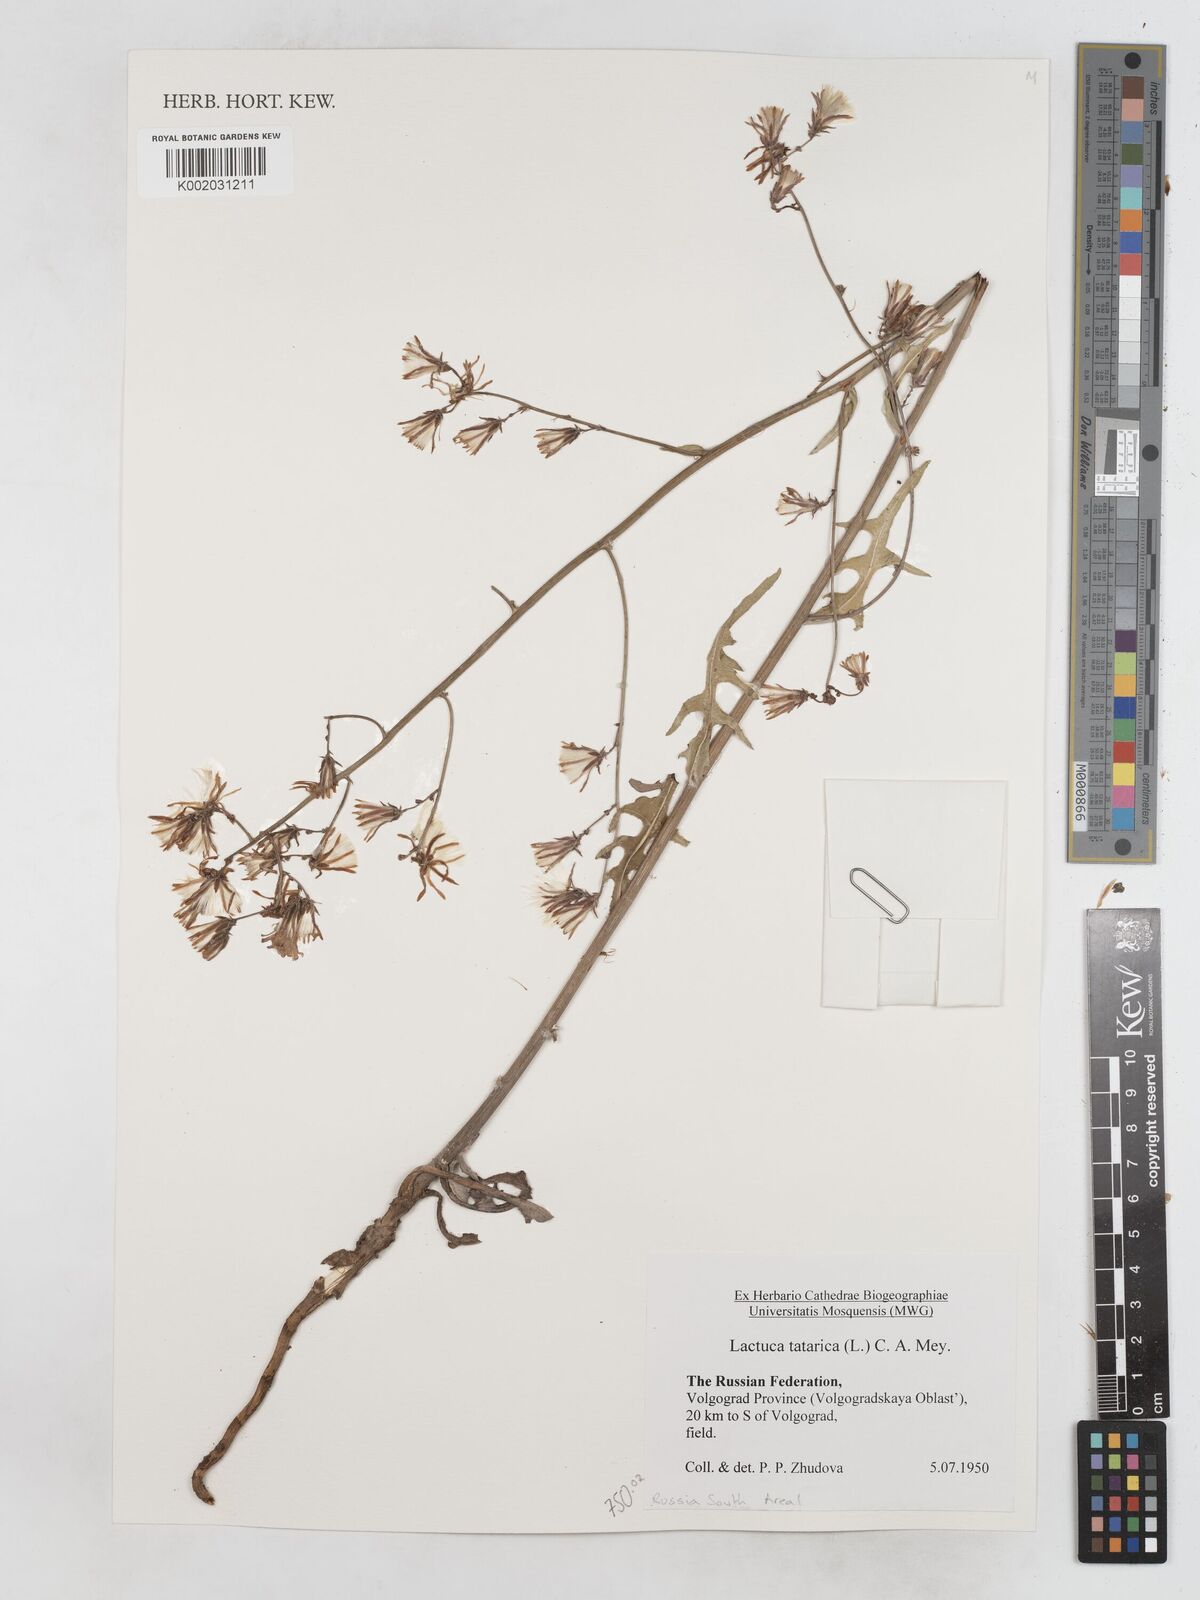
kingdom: Plantae
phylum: Tracheophyta
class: Magnoliopsida
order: Asterales
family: Asteraceae
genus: Lactuca
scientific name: Lactuca tatarica
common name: Blue lettuce
